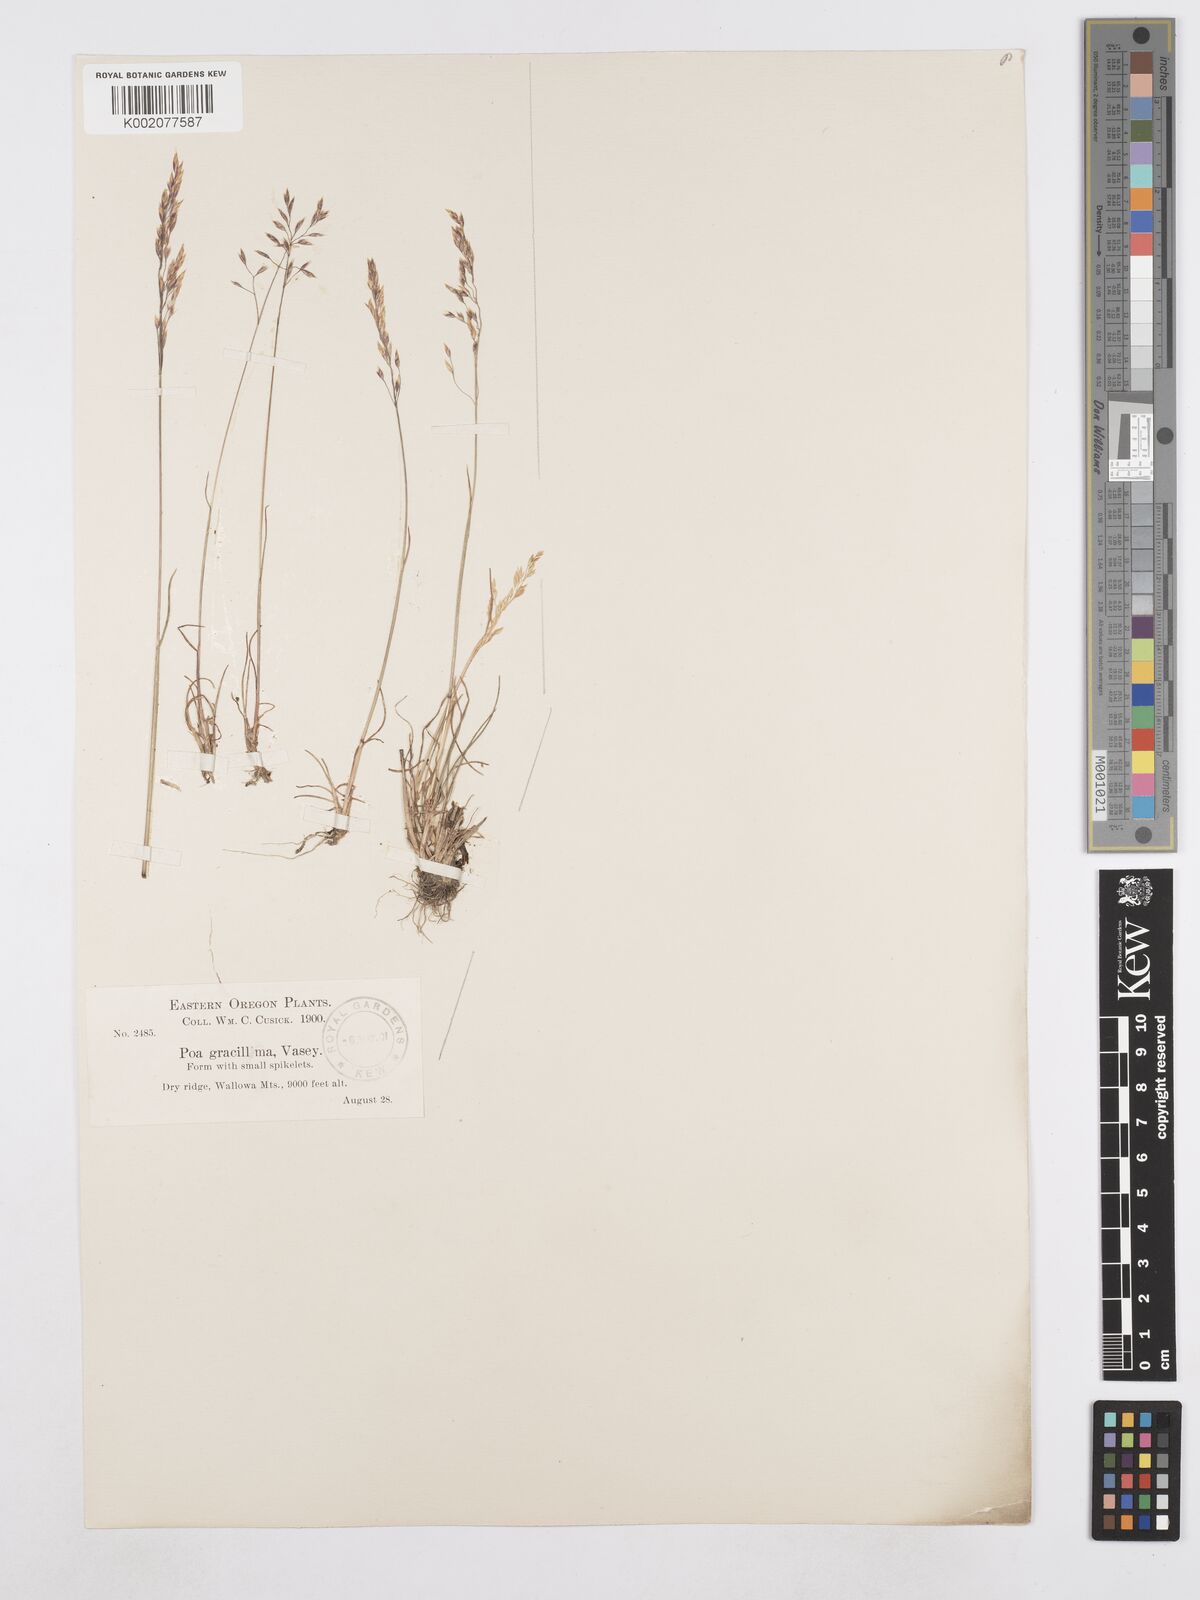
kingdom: Plantae
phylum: Tracheophyta
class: Liliopsida
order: Poales
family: Poaceae
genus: Poa
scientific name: Poa secunda
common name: Sandberg bluegrass
